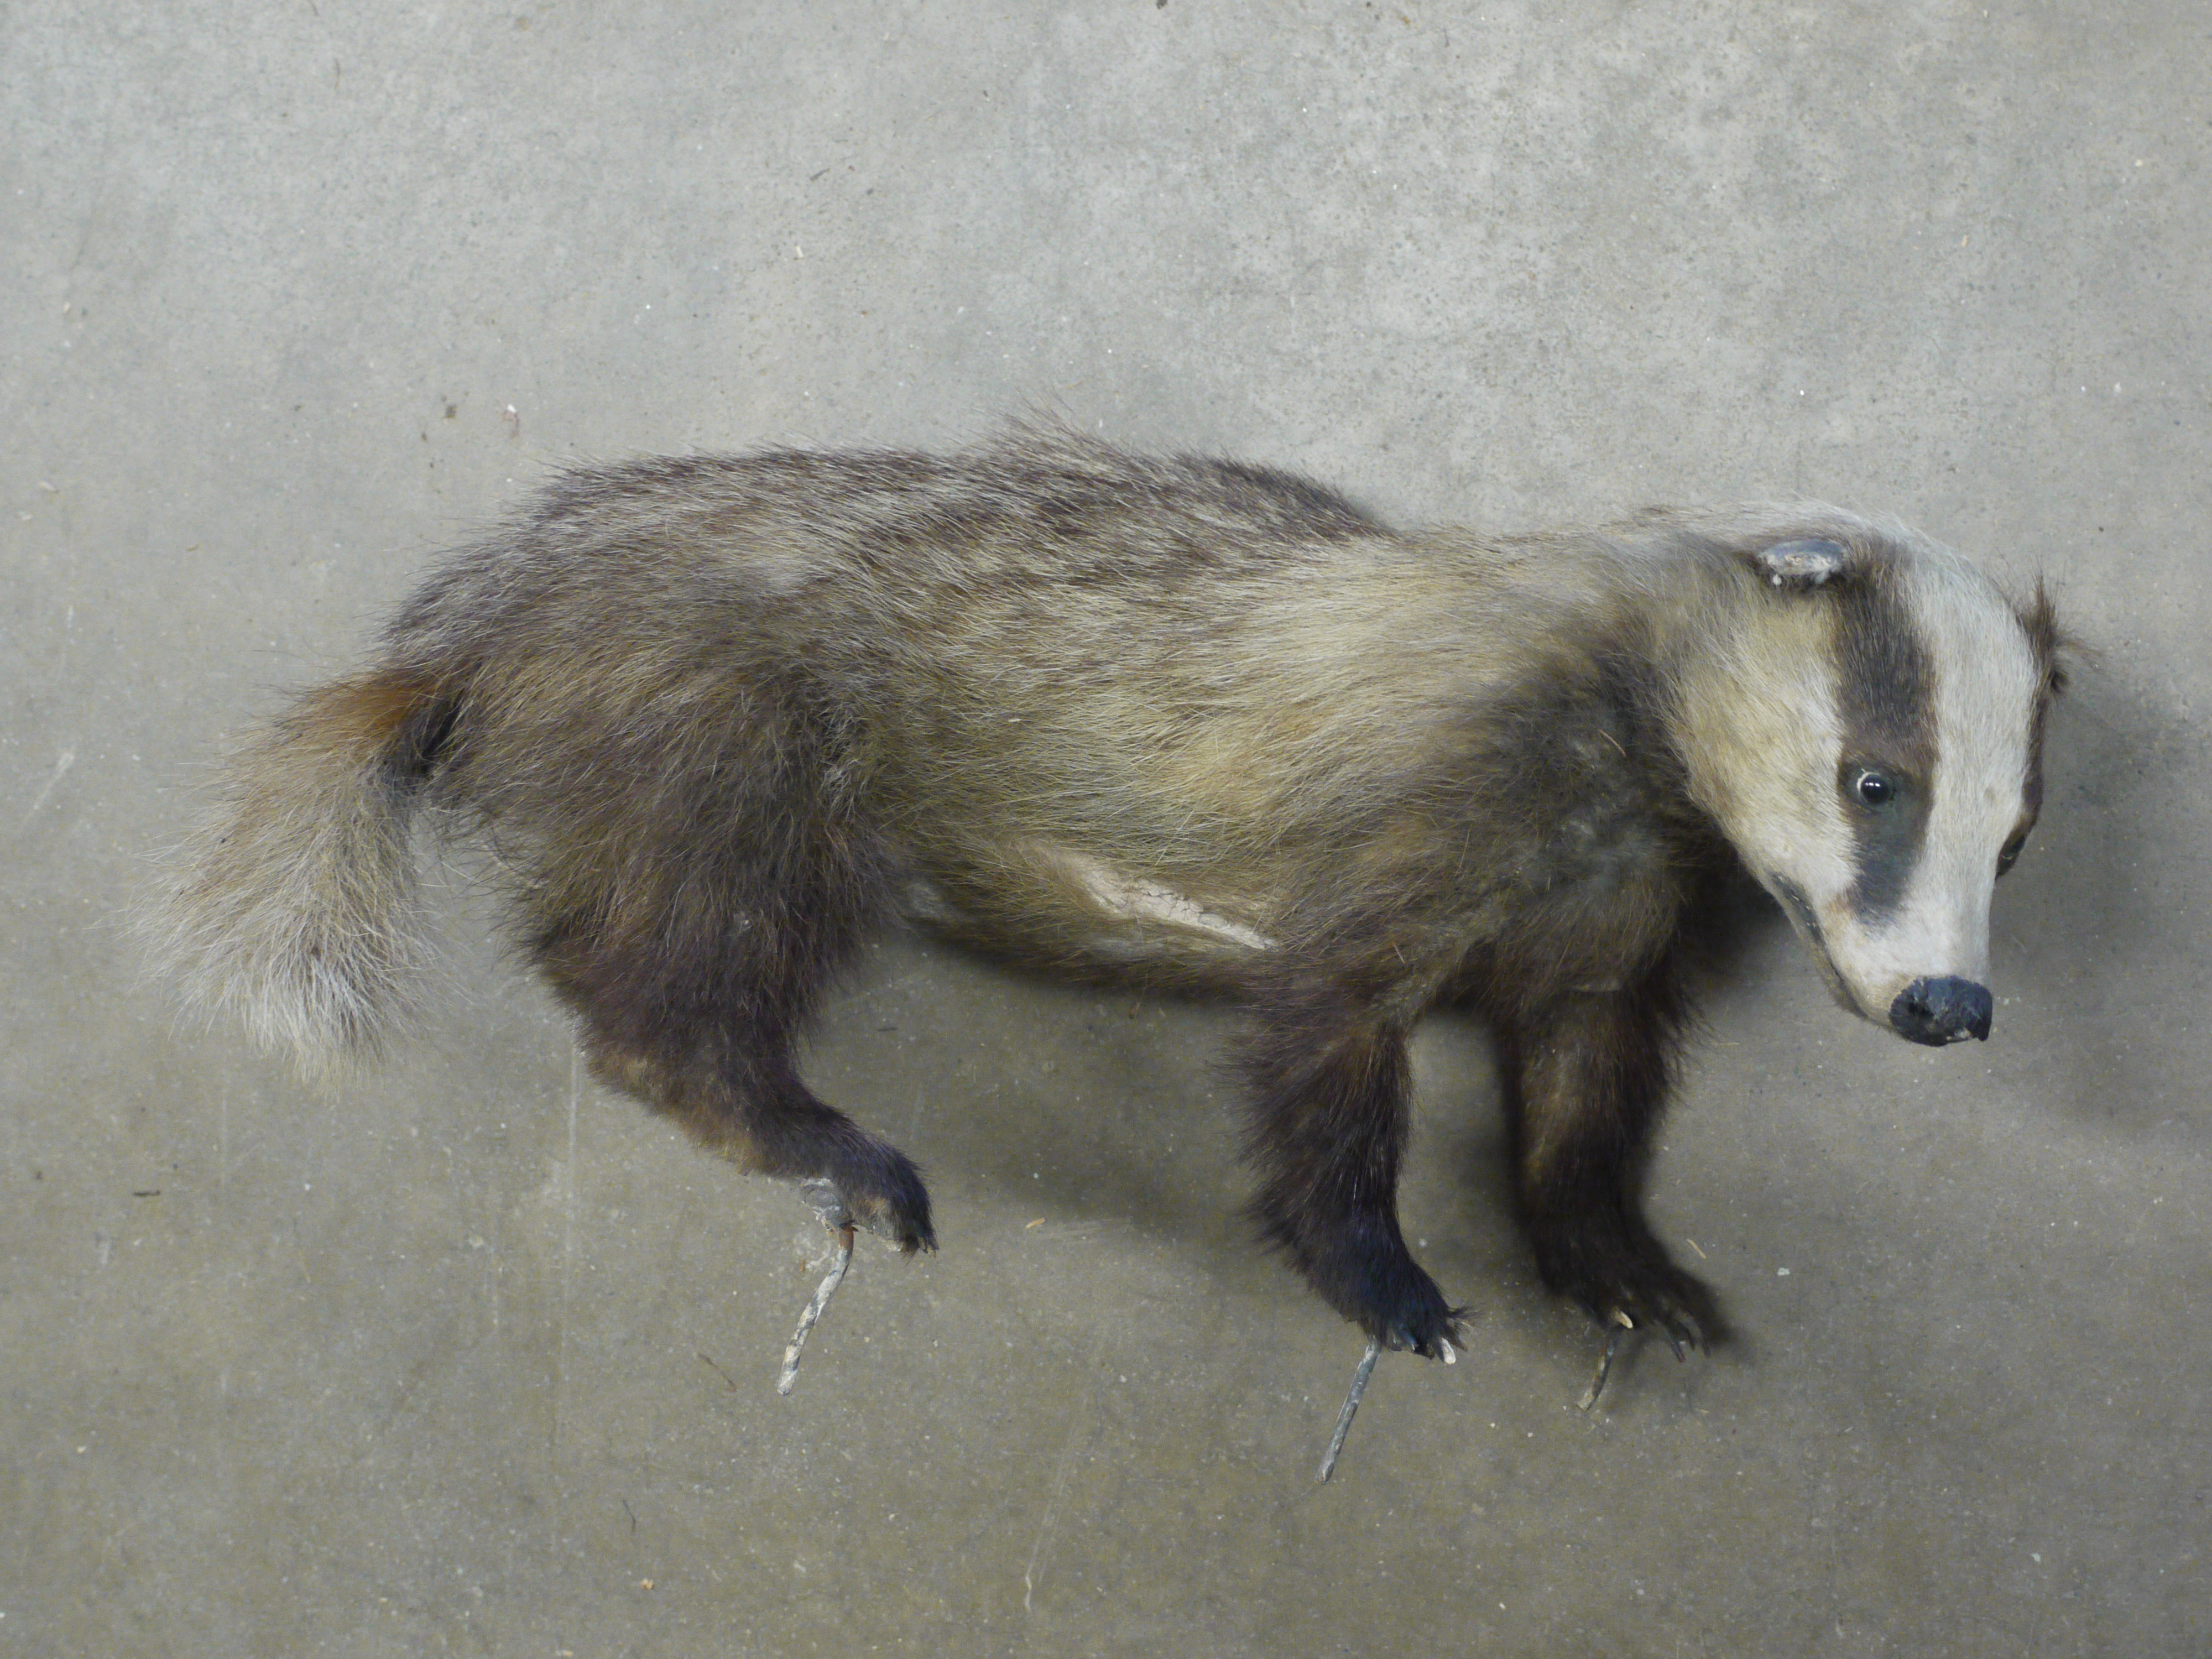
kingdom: Animalia
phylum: Chordata
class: Mammalia
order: Carnivora
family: Mustelidae
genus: Meles
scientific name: Meles meles
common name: Eurasian badger
